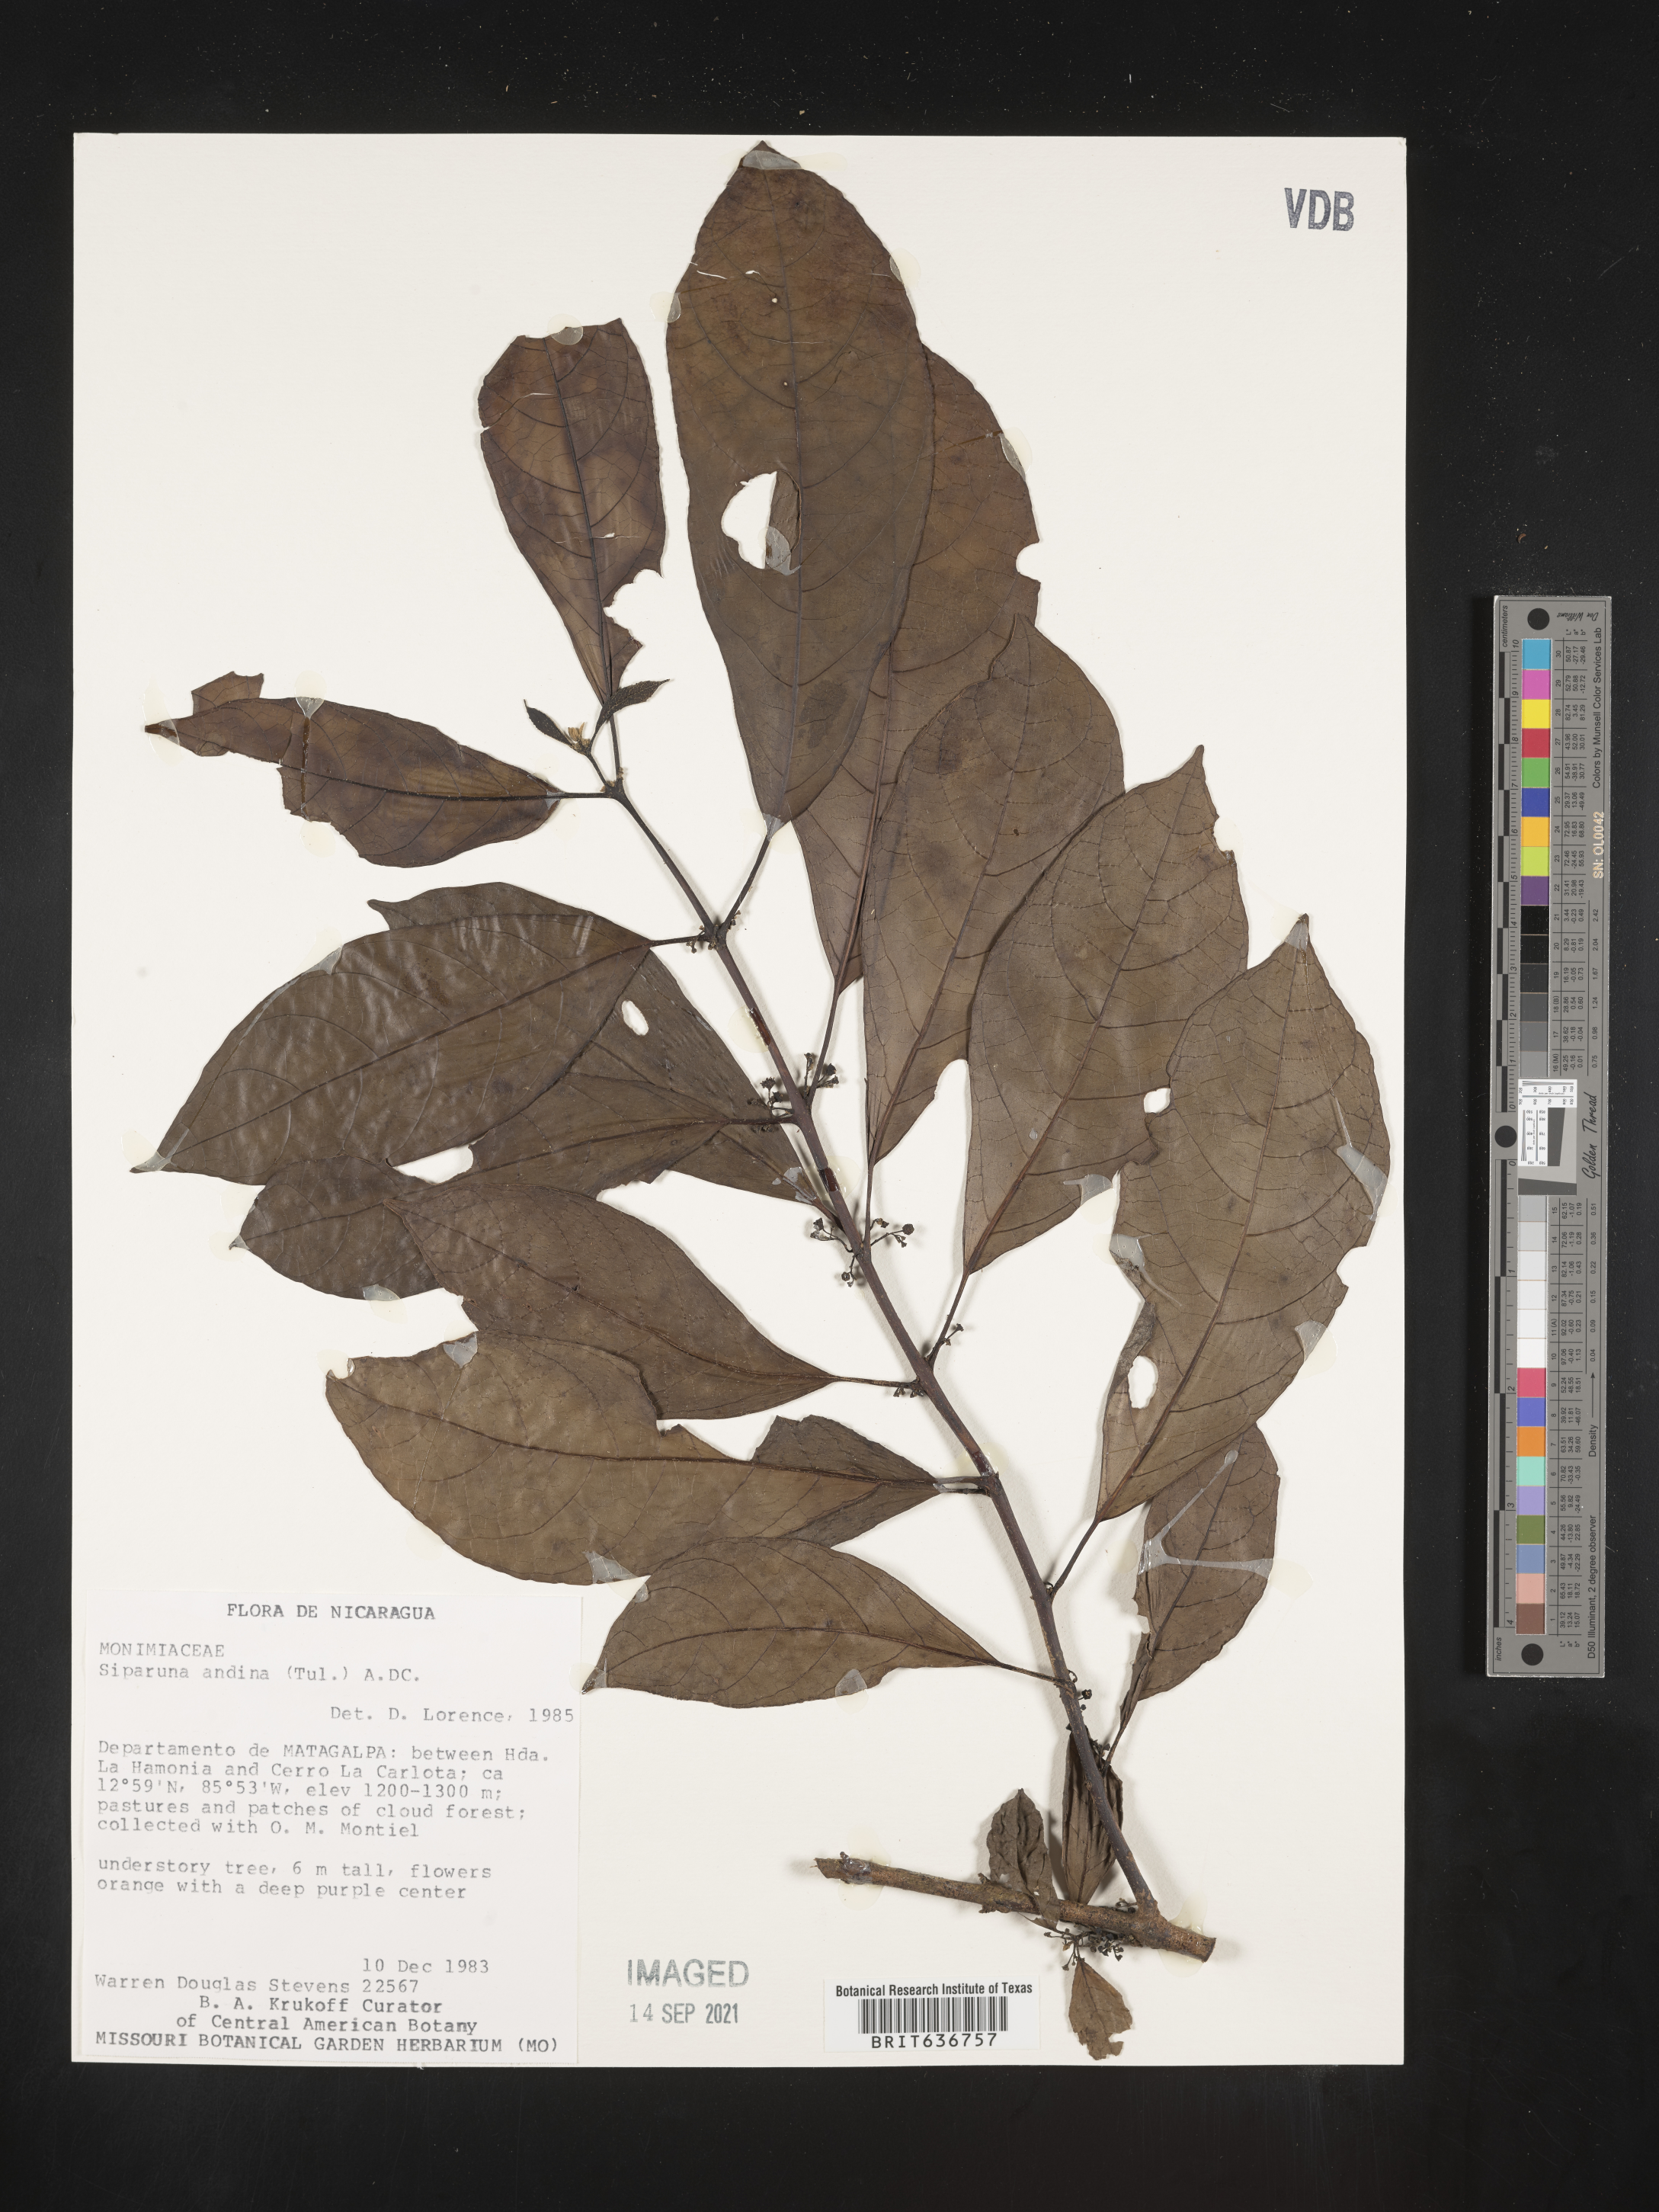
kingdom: Plantae
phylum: Tracheophyta
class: Magnoliopsida
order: Laurales
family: Siparunaceae
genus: Siparuna
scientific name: Siparuna
